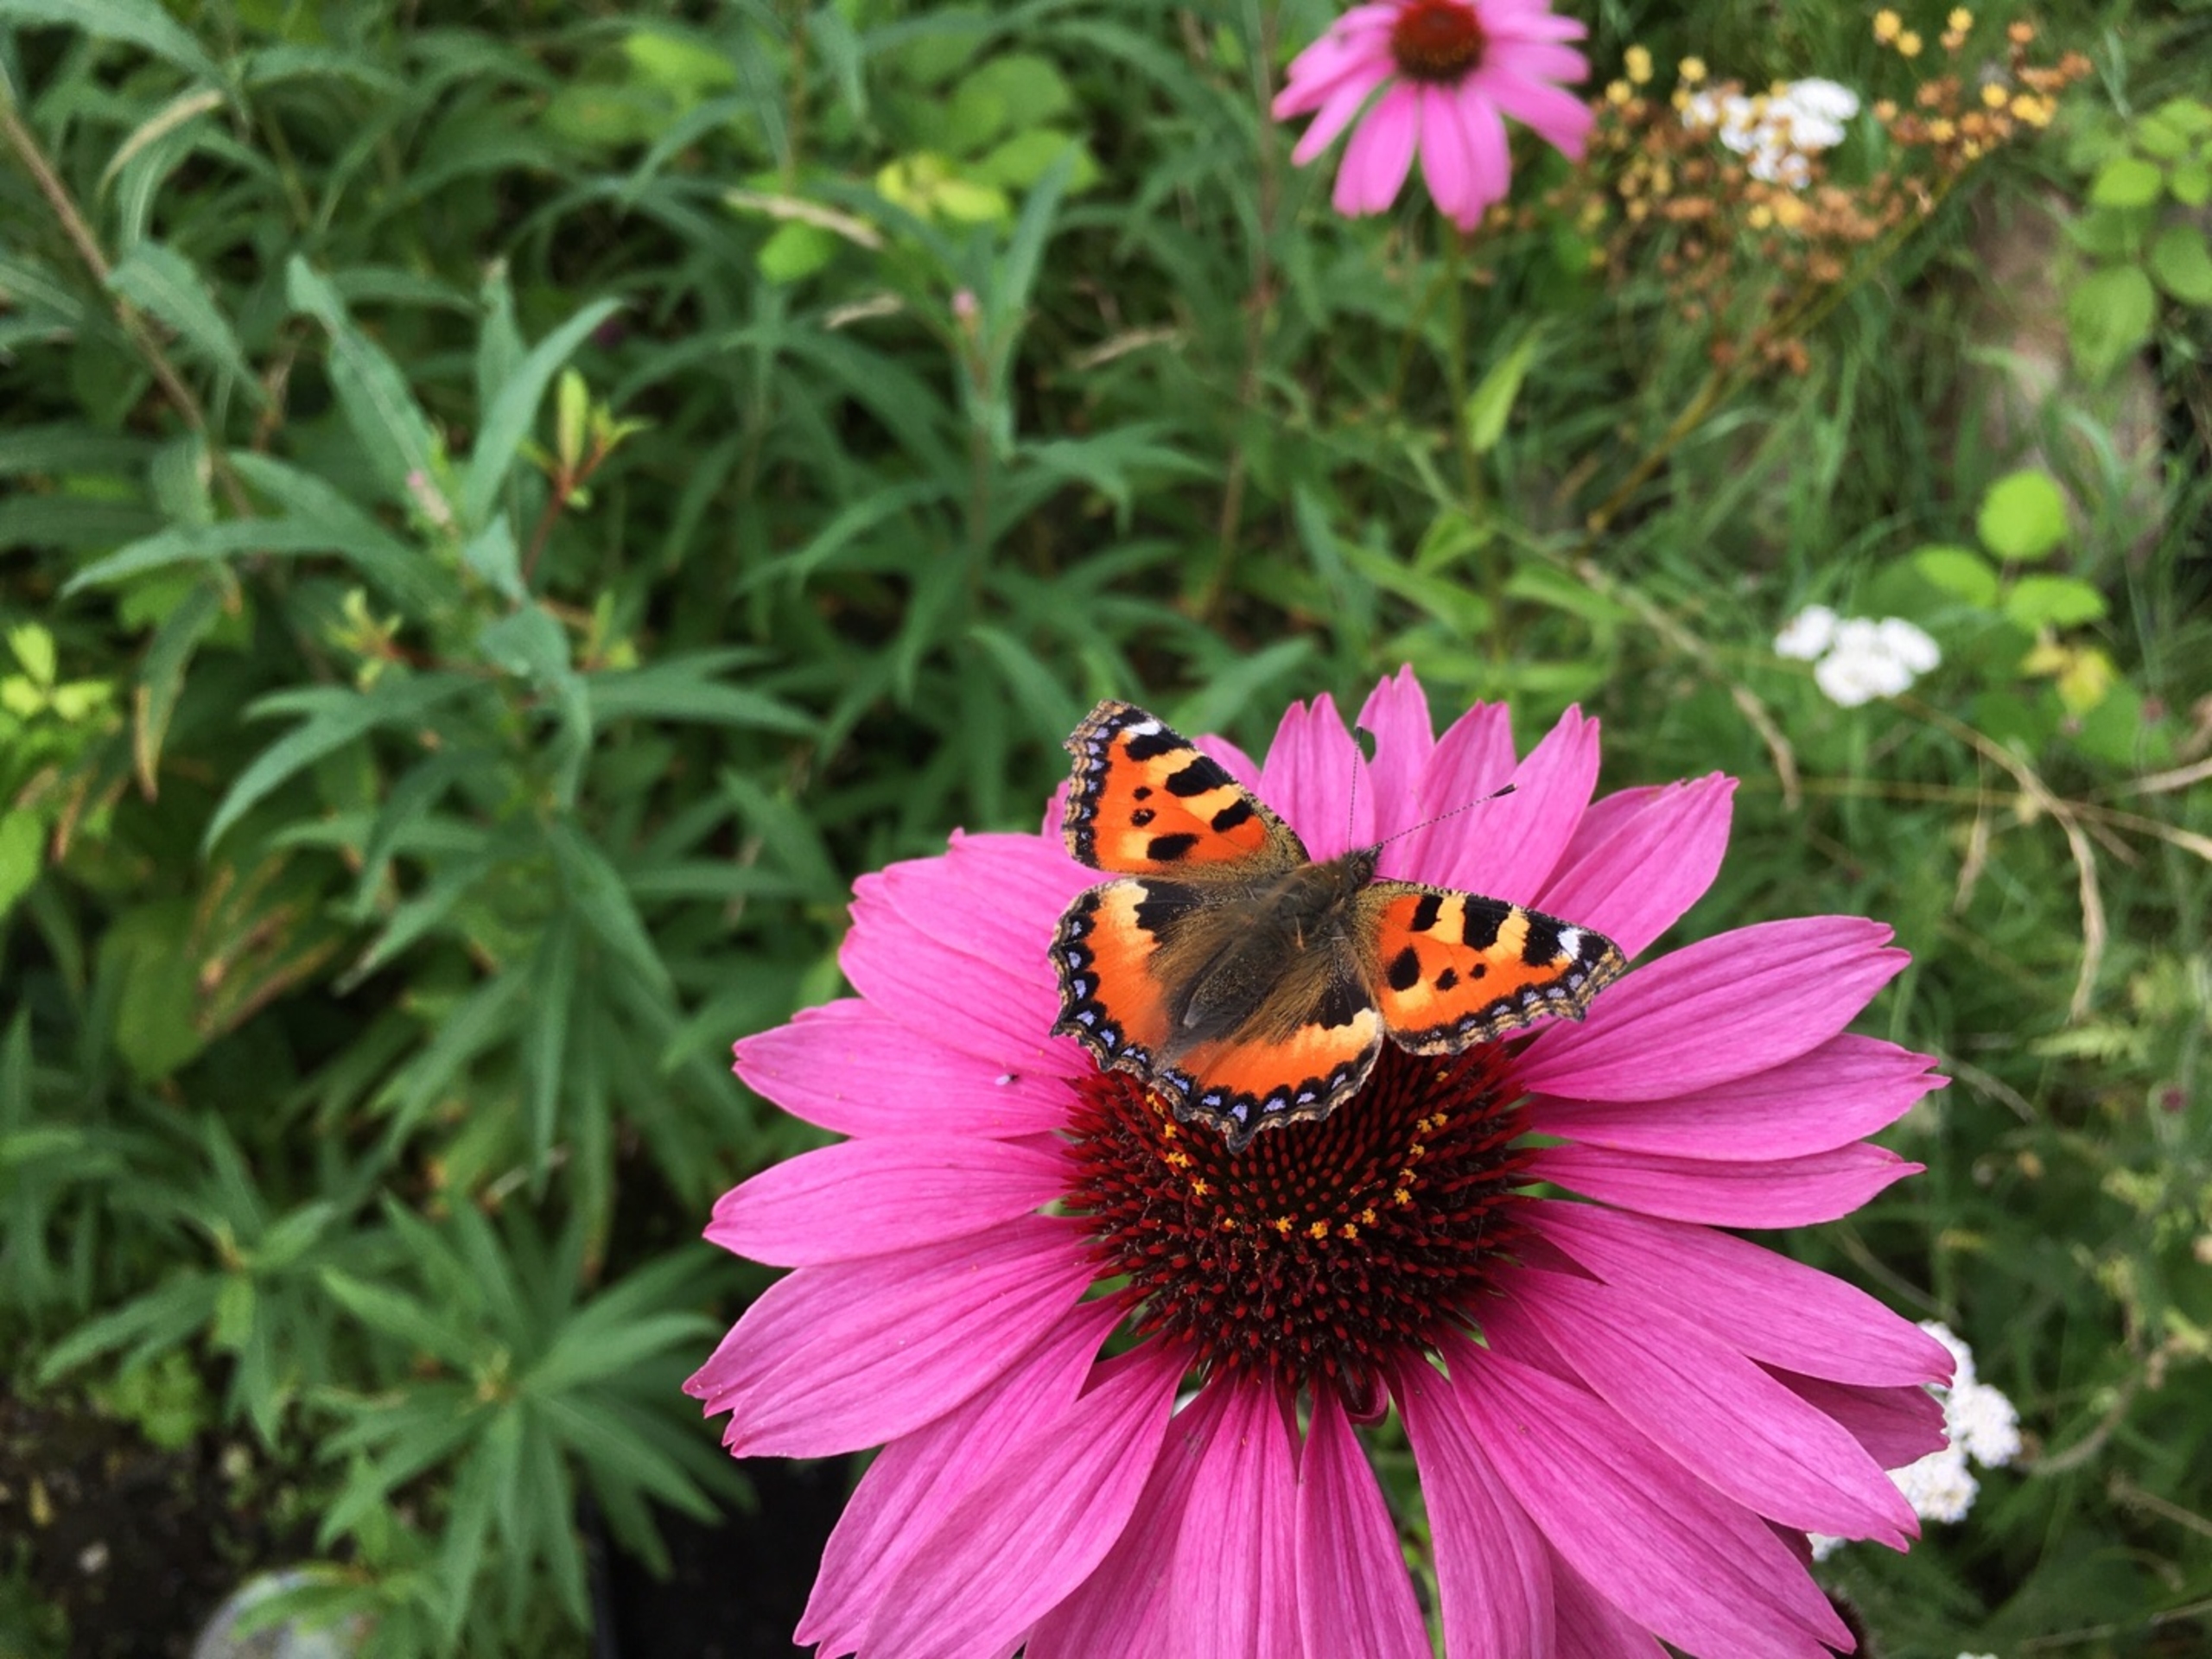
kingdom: Animalia
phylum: Arthropoda
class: Insecta
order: Lepidoptera
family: Nymphalidae
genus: Aglais
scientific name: Aglais urticae
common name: Nældens takvinge
